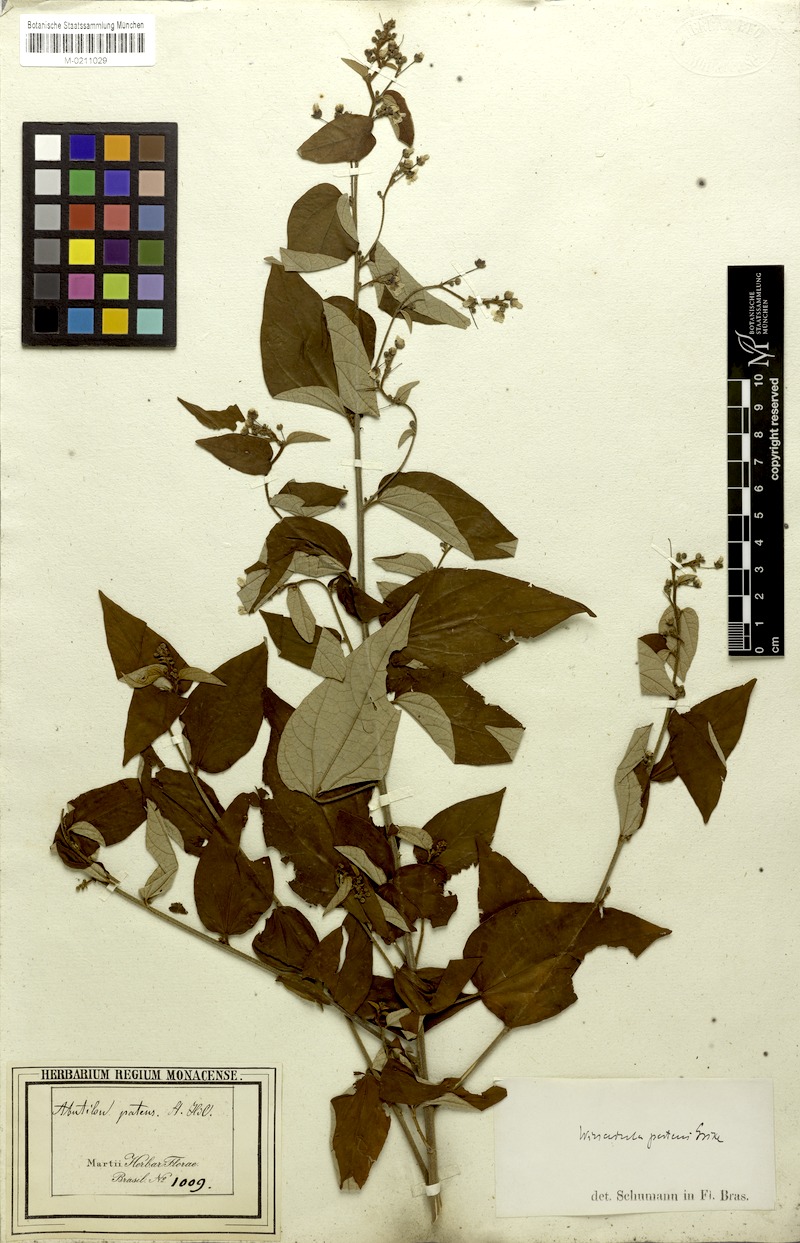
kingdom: Plantae
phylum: Tracheophyta
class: Magnoliopsida
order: Malvales
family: Malvaceae
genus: Wissadula
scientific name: Wissadula excelsior
